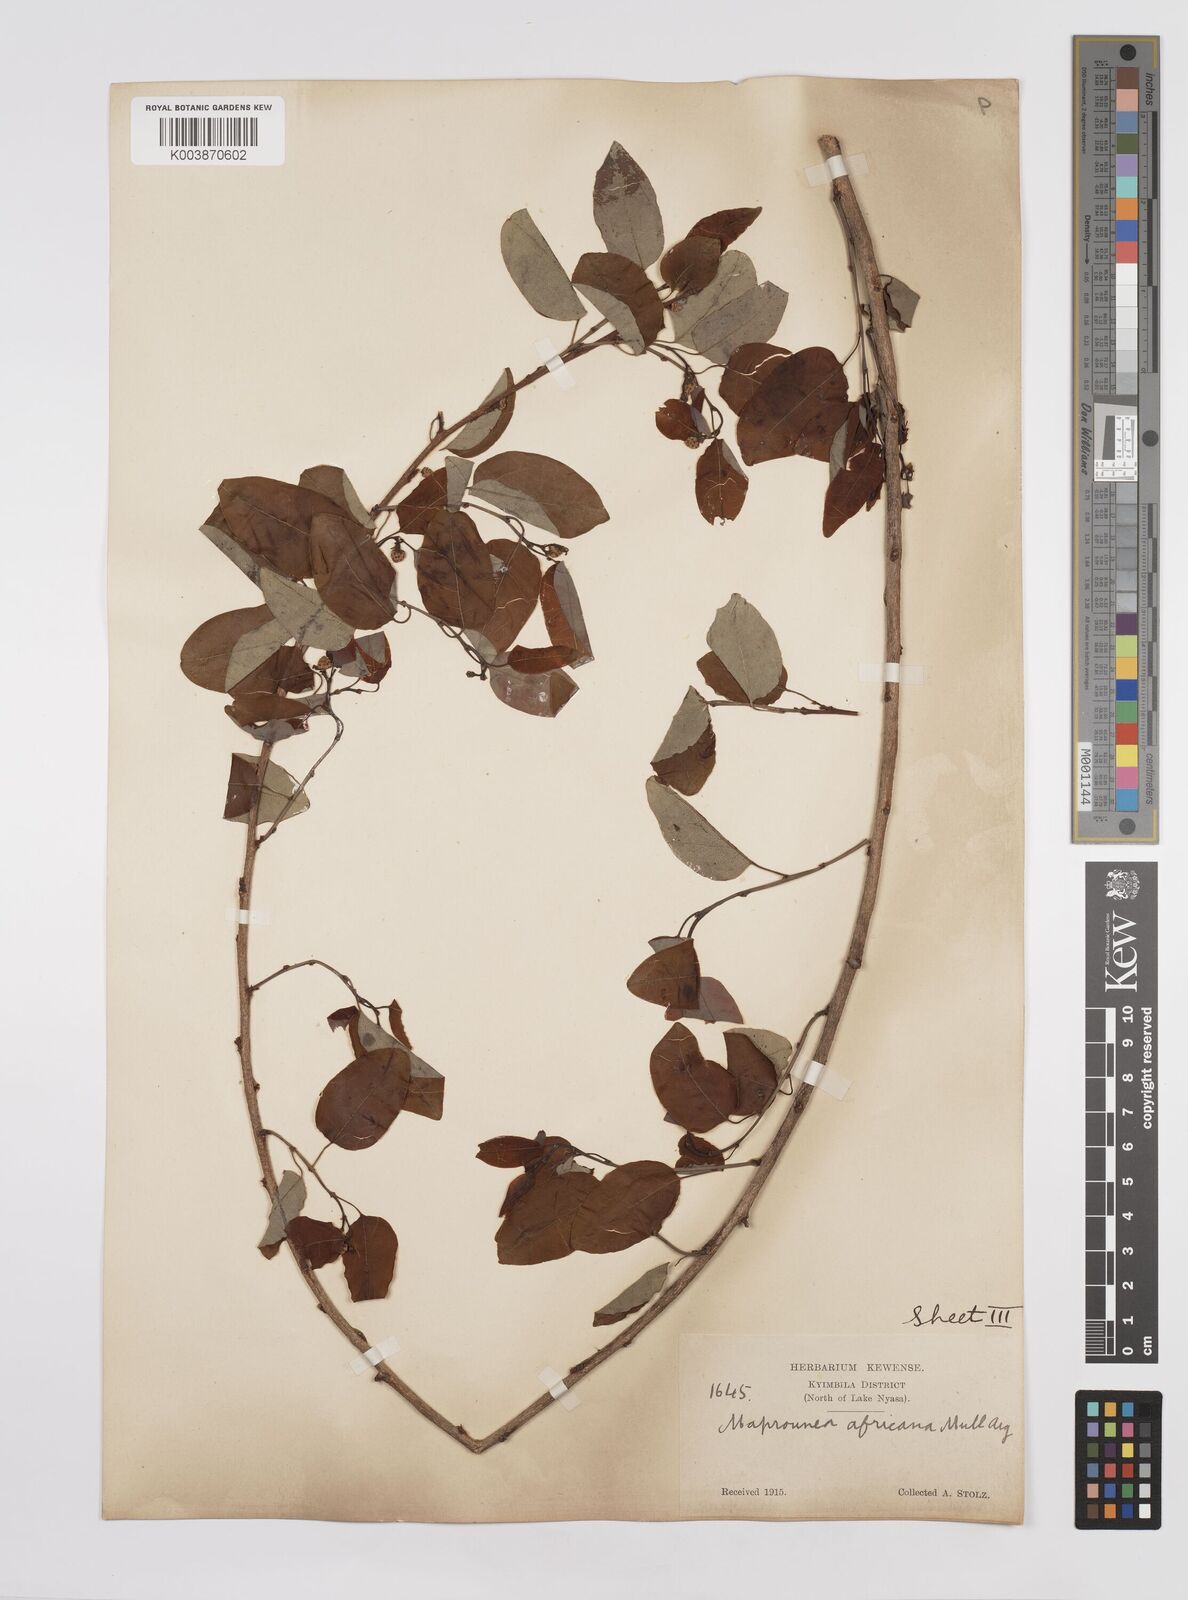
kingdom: Plantae
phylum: Tracheophyta
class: Magnoliopsida
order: Malpighiales
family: Euphorbiaceae
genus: Maprounea
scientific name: Maprounea africana
